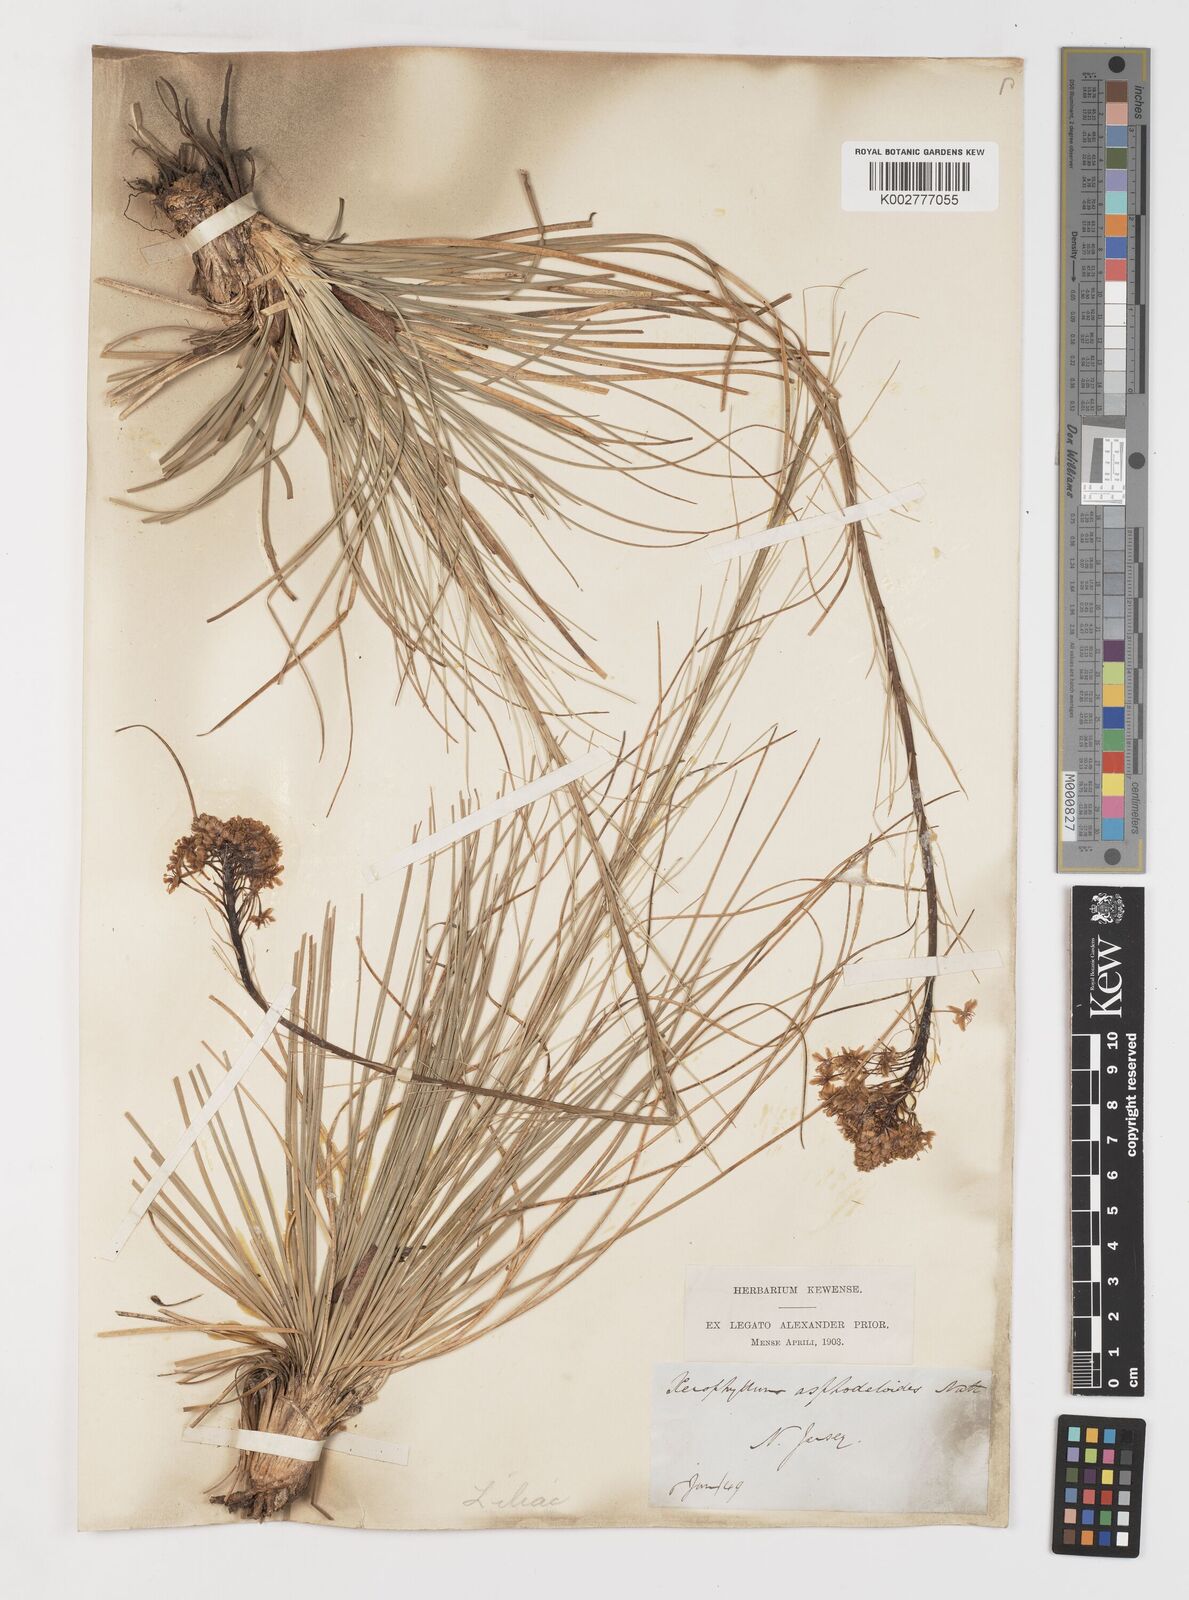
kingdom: Plantae
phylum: Tracheophyta
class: Liliopsida
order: Liliales
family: Melanthiaceae
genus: Xerophyllum
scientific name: Xerophyllum asphodeloides
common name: Mountain-asphodel
